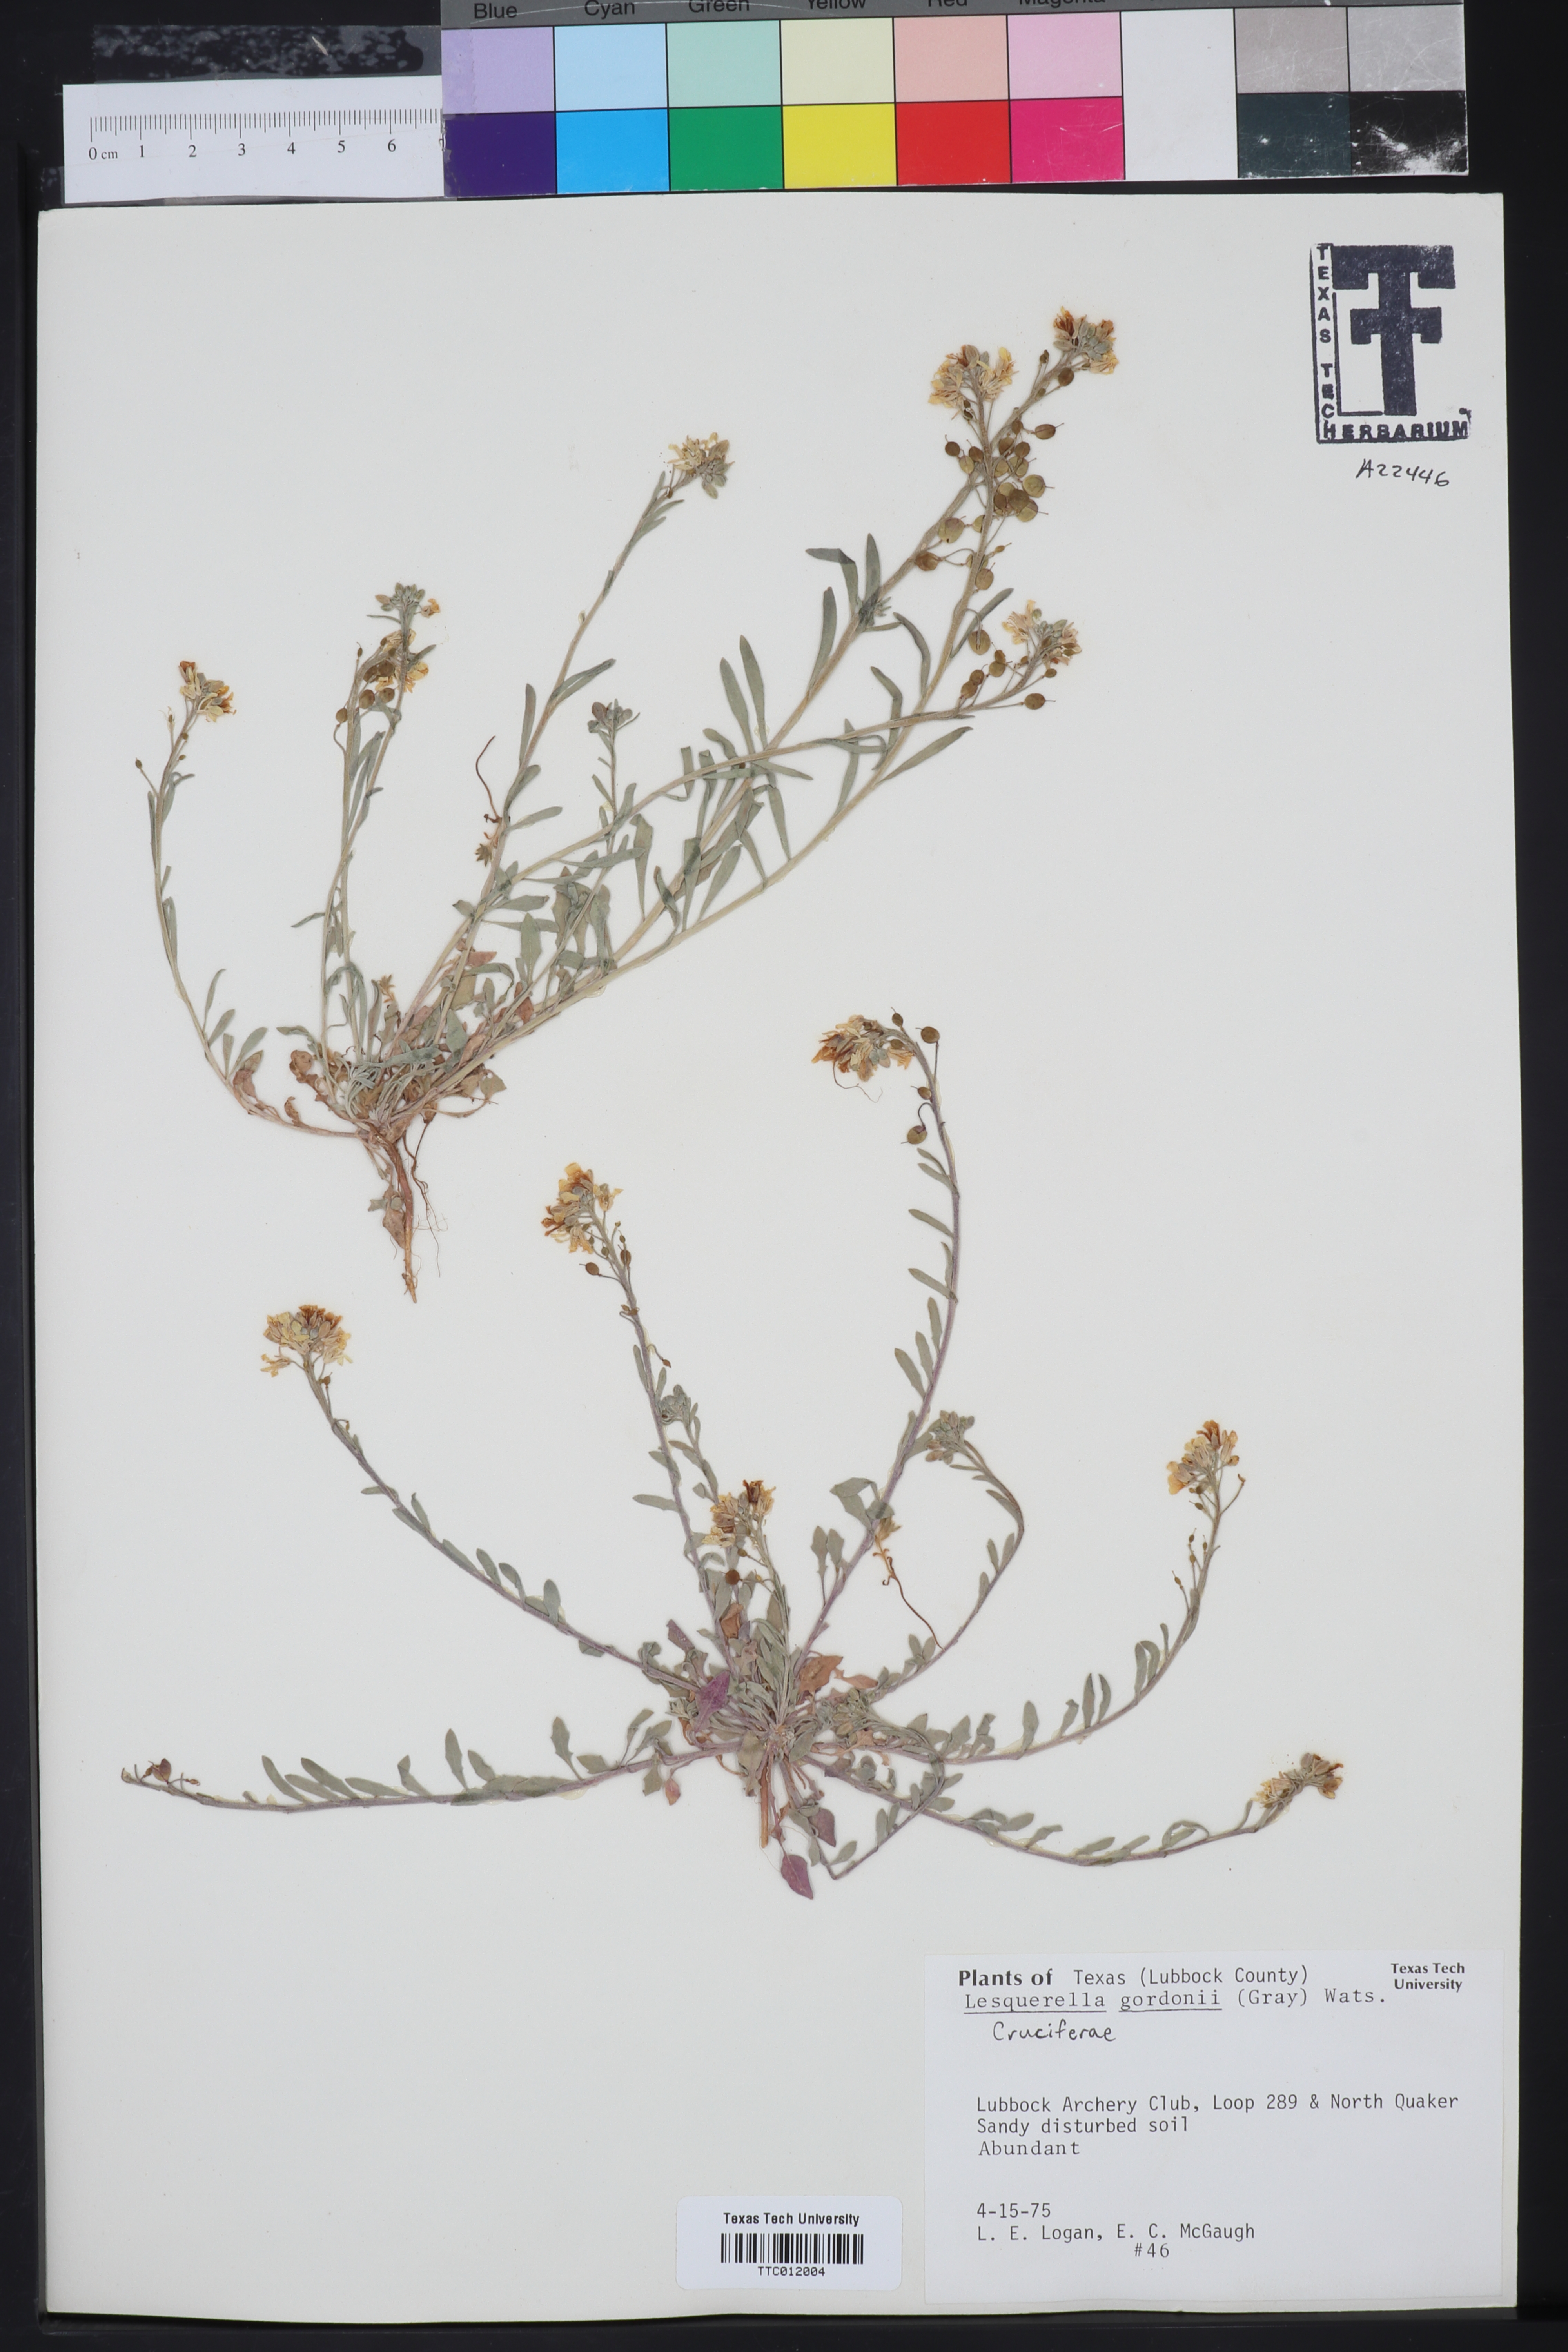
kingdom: Plantae
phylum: Tracheophyta
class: Magnoliopsida
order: Brassicales
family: Brassicaceae
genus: Physaria
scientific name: Physaria gordonii
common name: Gordon's bladderpod
